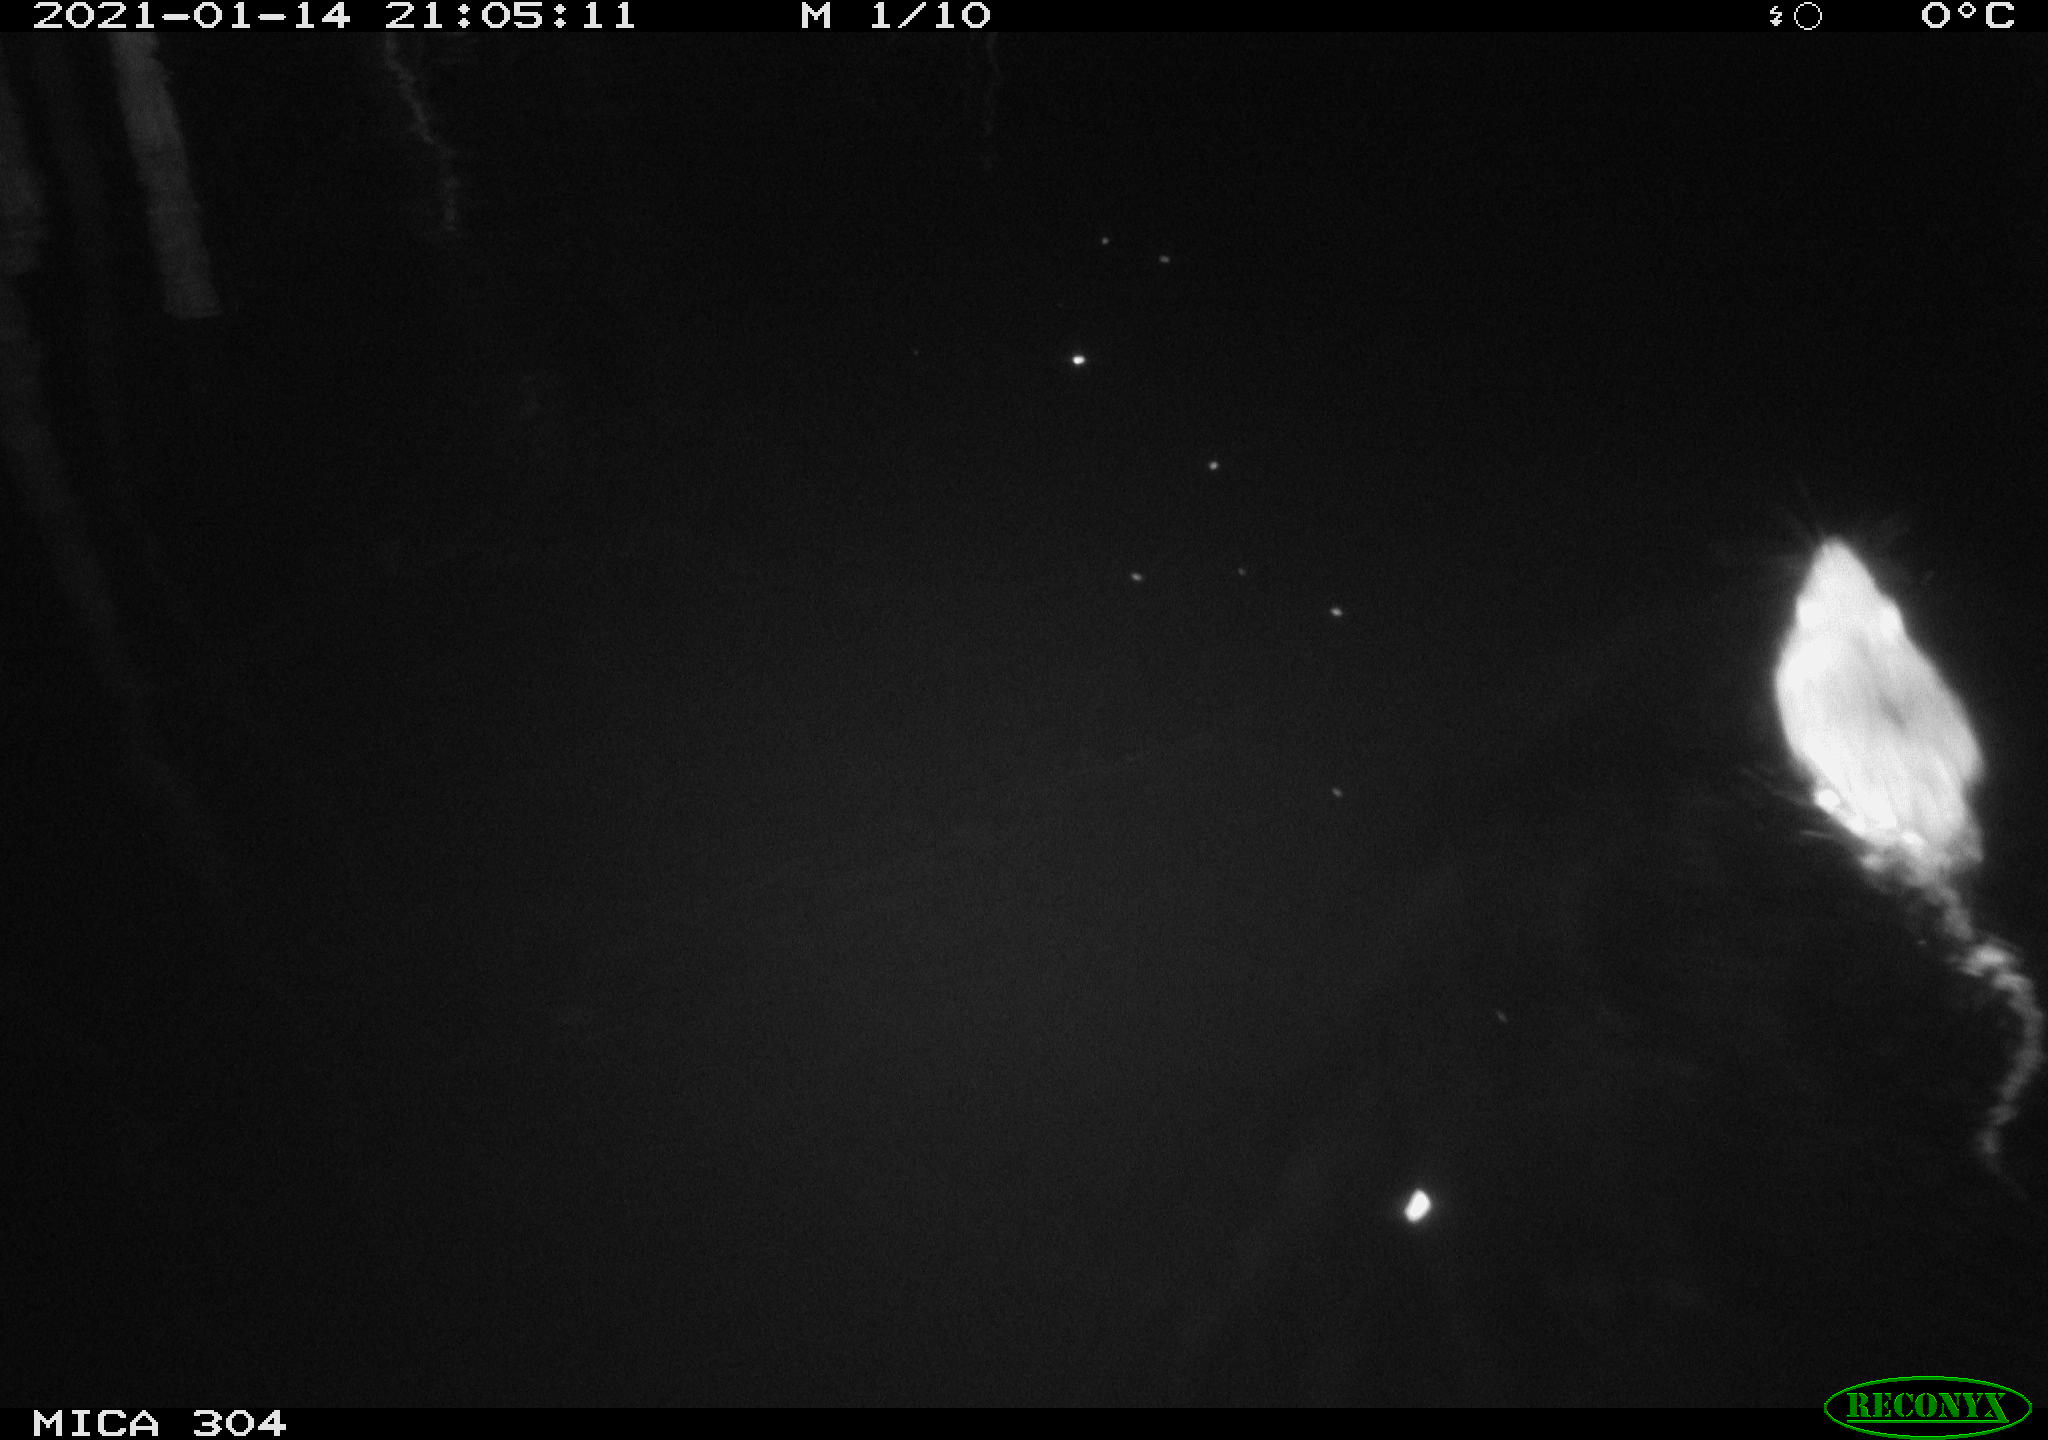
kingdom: Animalia
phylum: Chordata
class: Mammalia
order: Rodentia
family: Muridae
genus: Rattus
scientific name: Rattus norvegicus
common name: Brown rat
